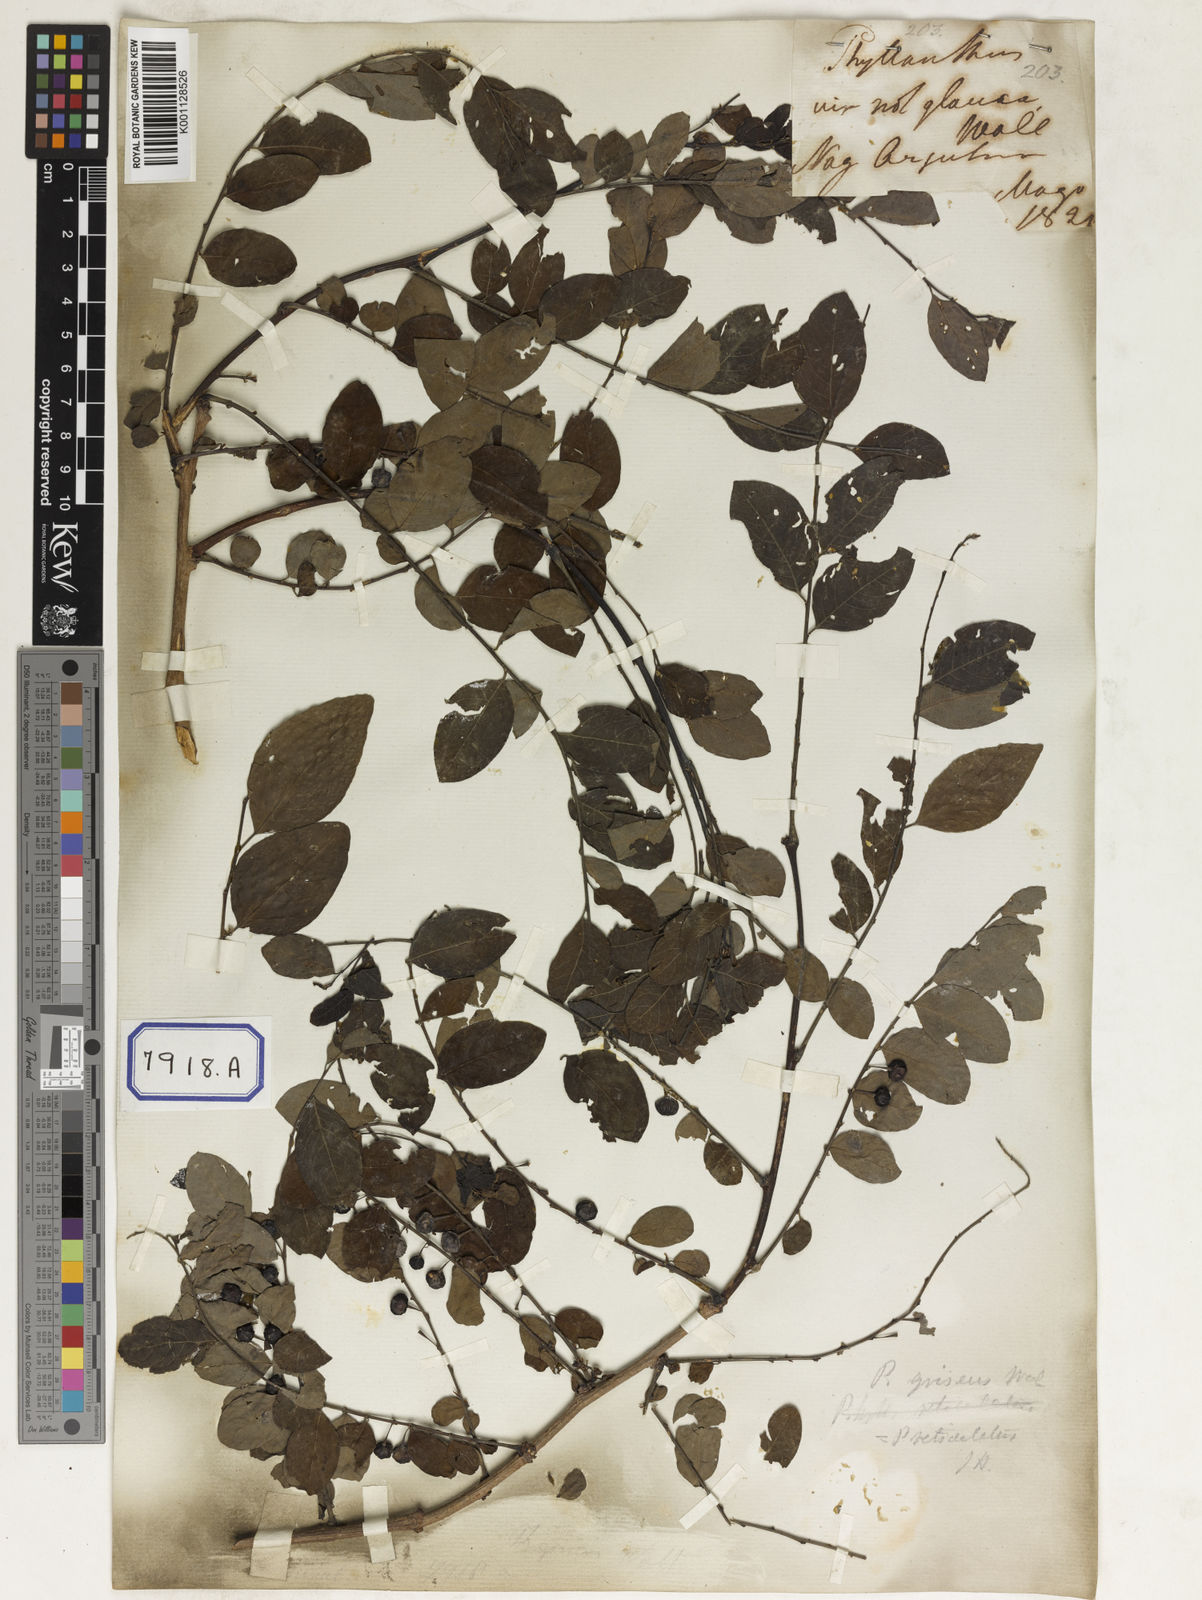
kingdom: Plantae
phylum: Tracheophyta
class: Magnoliopsida
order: Malpighiales
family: Phyllanthaceae
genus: Phyllanthus
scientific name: Phyllanthus
